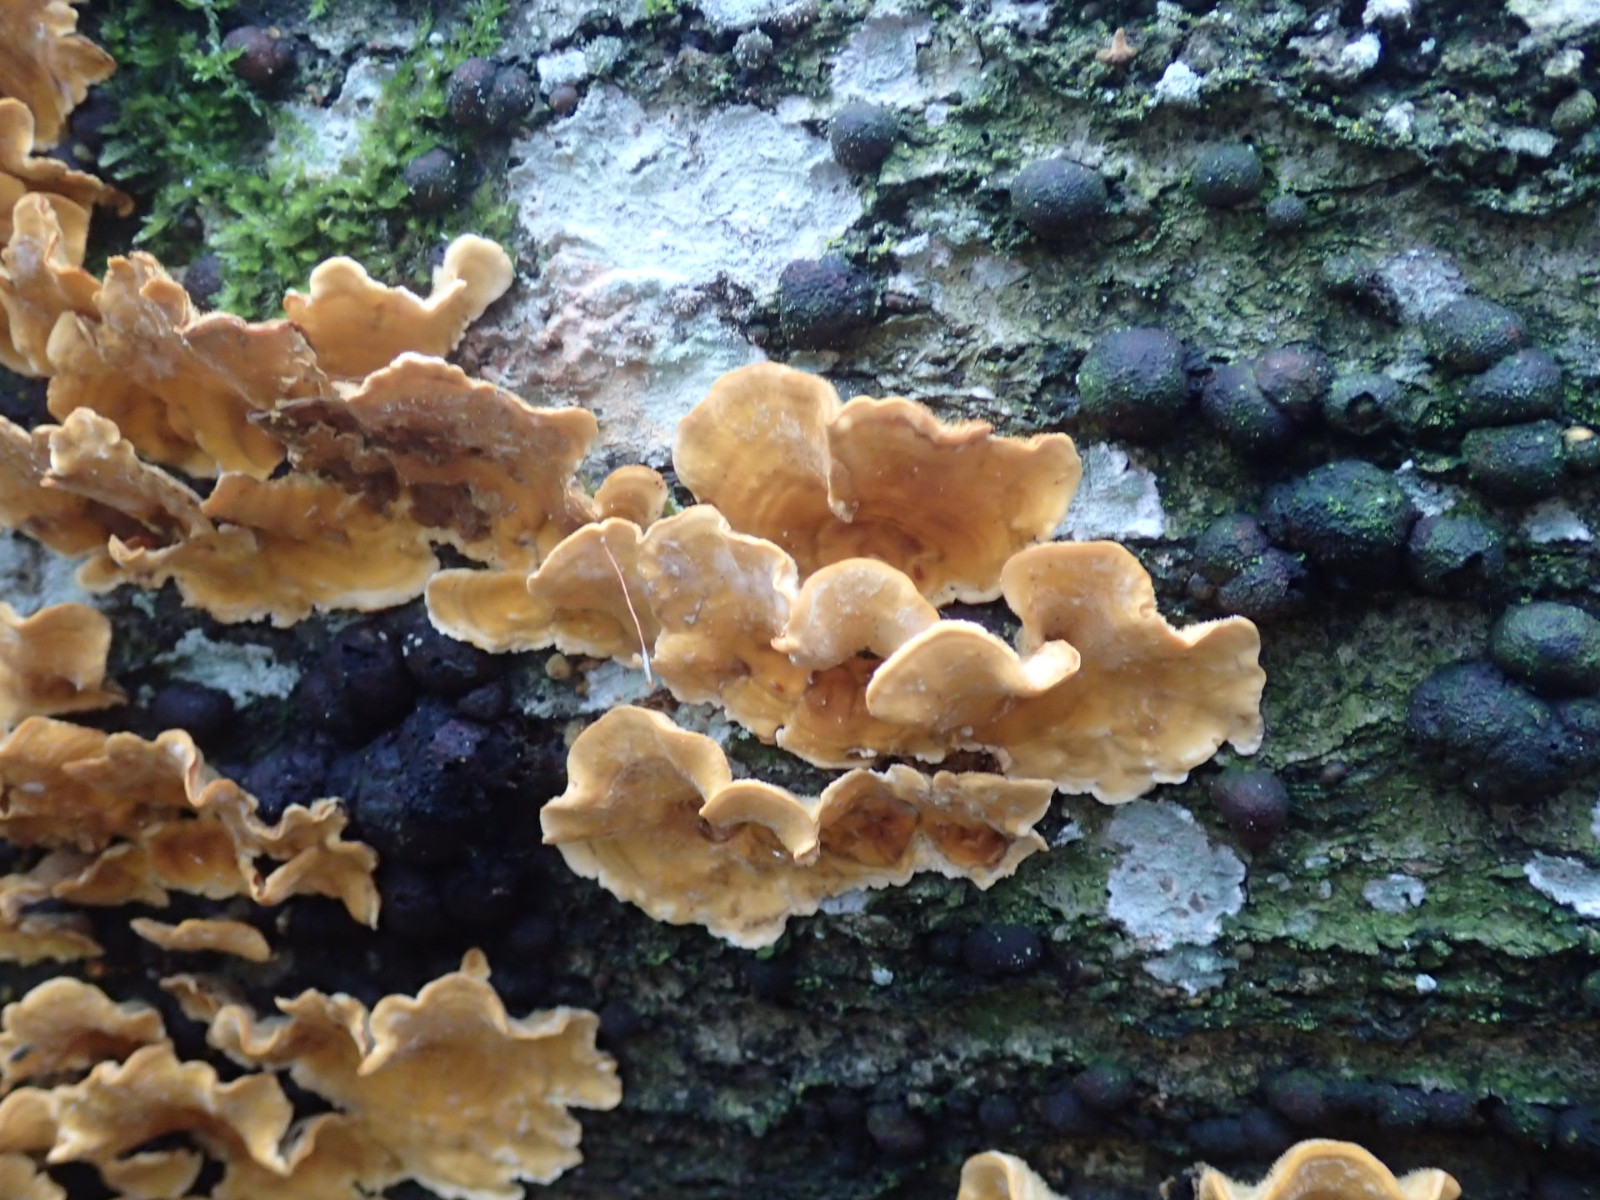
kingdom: Fungi
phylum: Ascomycota
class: Sordariomycetes
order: Xylariales
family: Hypoxylaceae
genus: Hypoxylon
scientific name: Hypoxylon fragiforme
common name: kuljordbær
